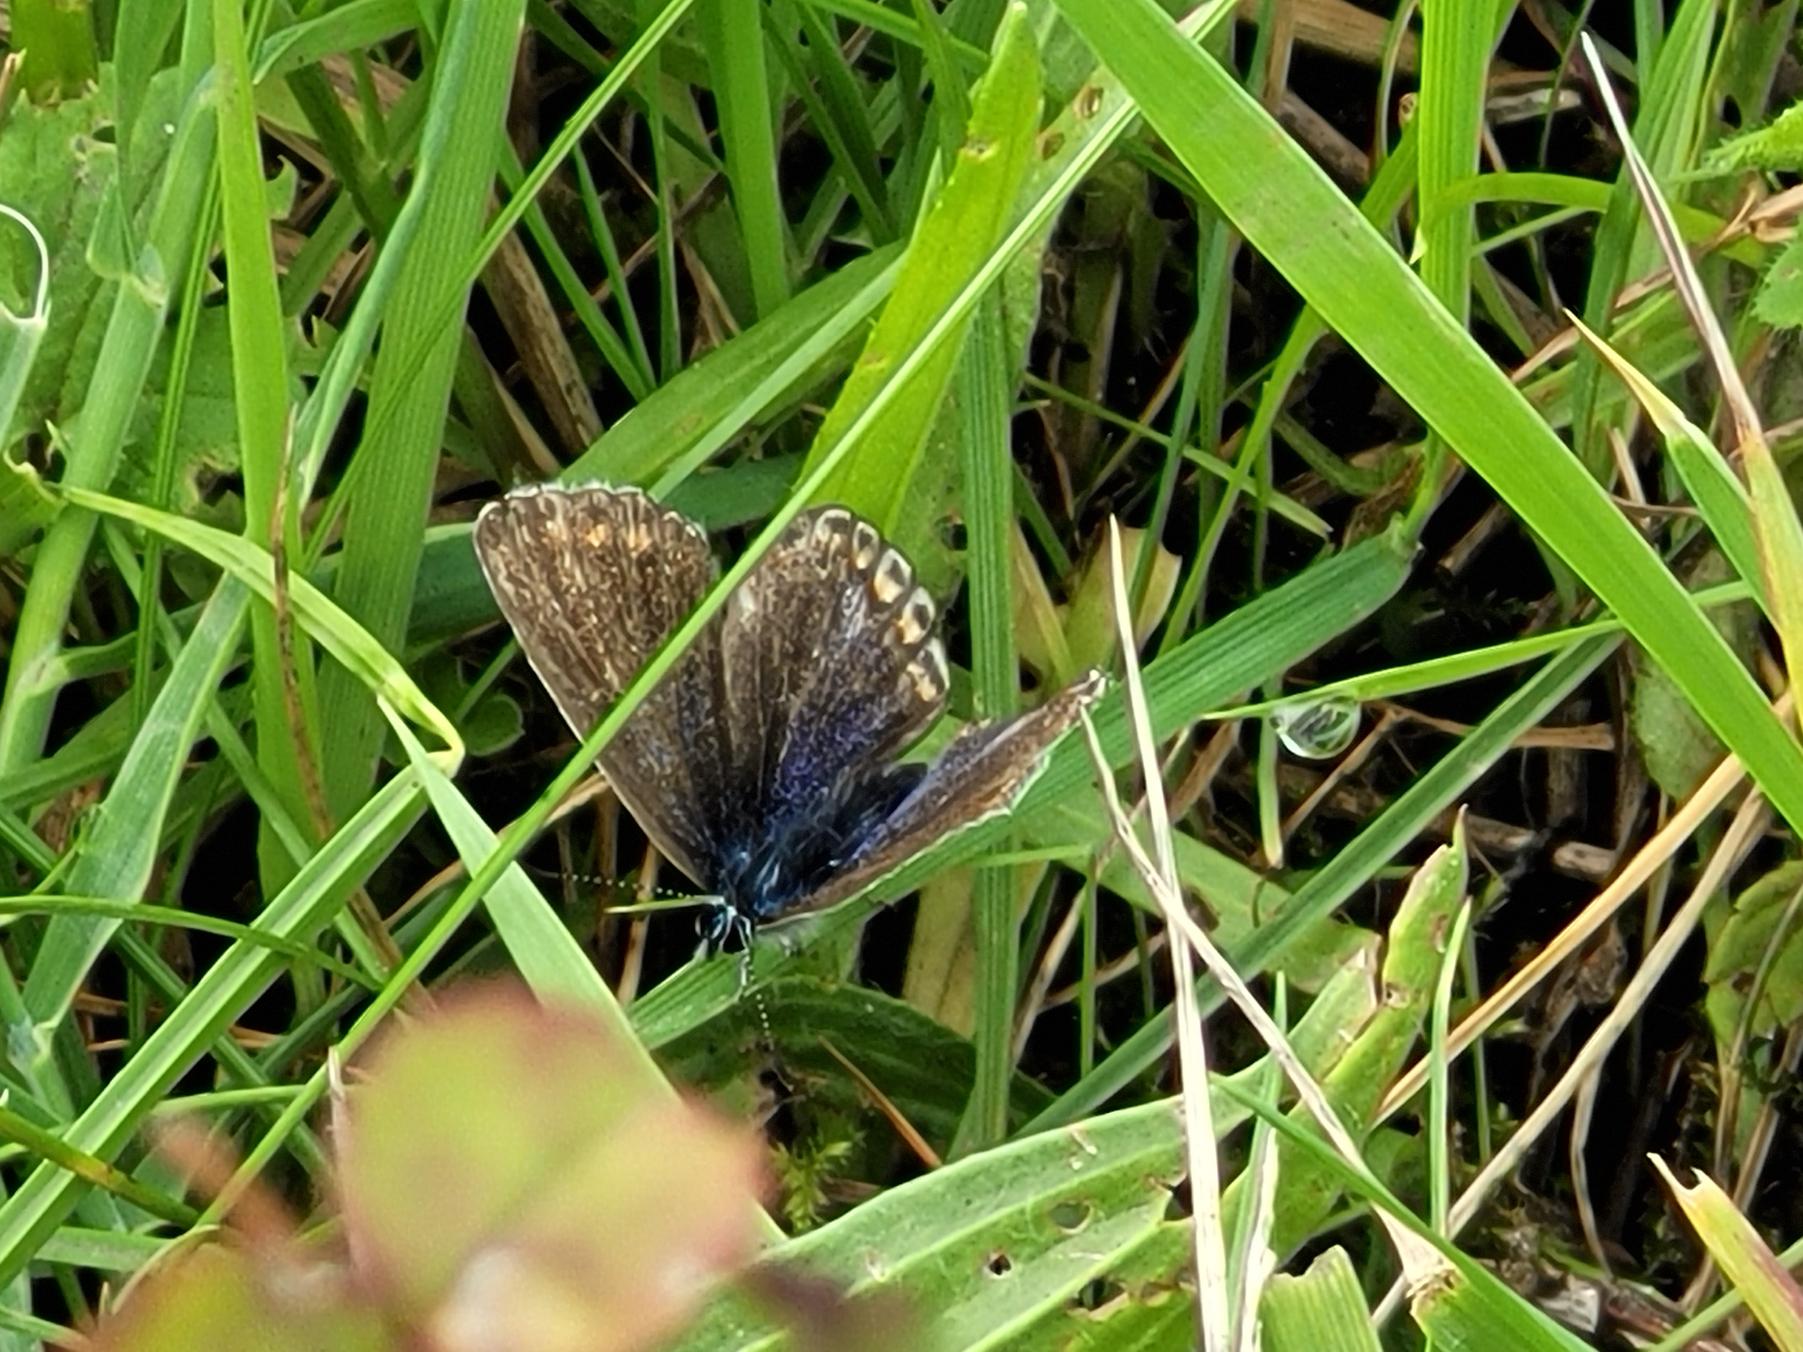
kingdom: Animalia
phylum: Arthropoda
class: Insecta
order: Lepidoptera
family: Lycaenidae
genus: Polyommatus
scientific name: Polyommatus icarus
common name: Almindelig blåfugl
